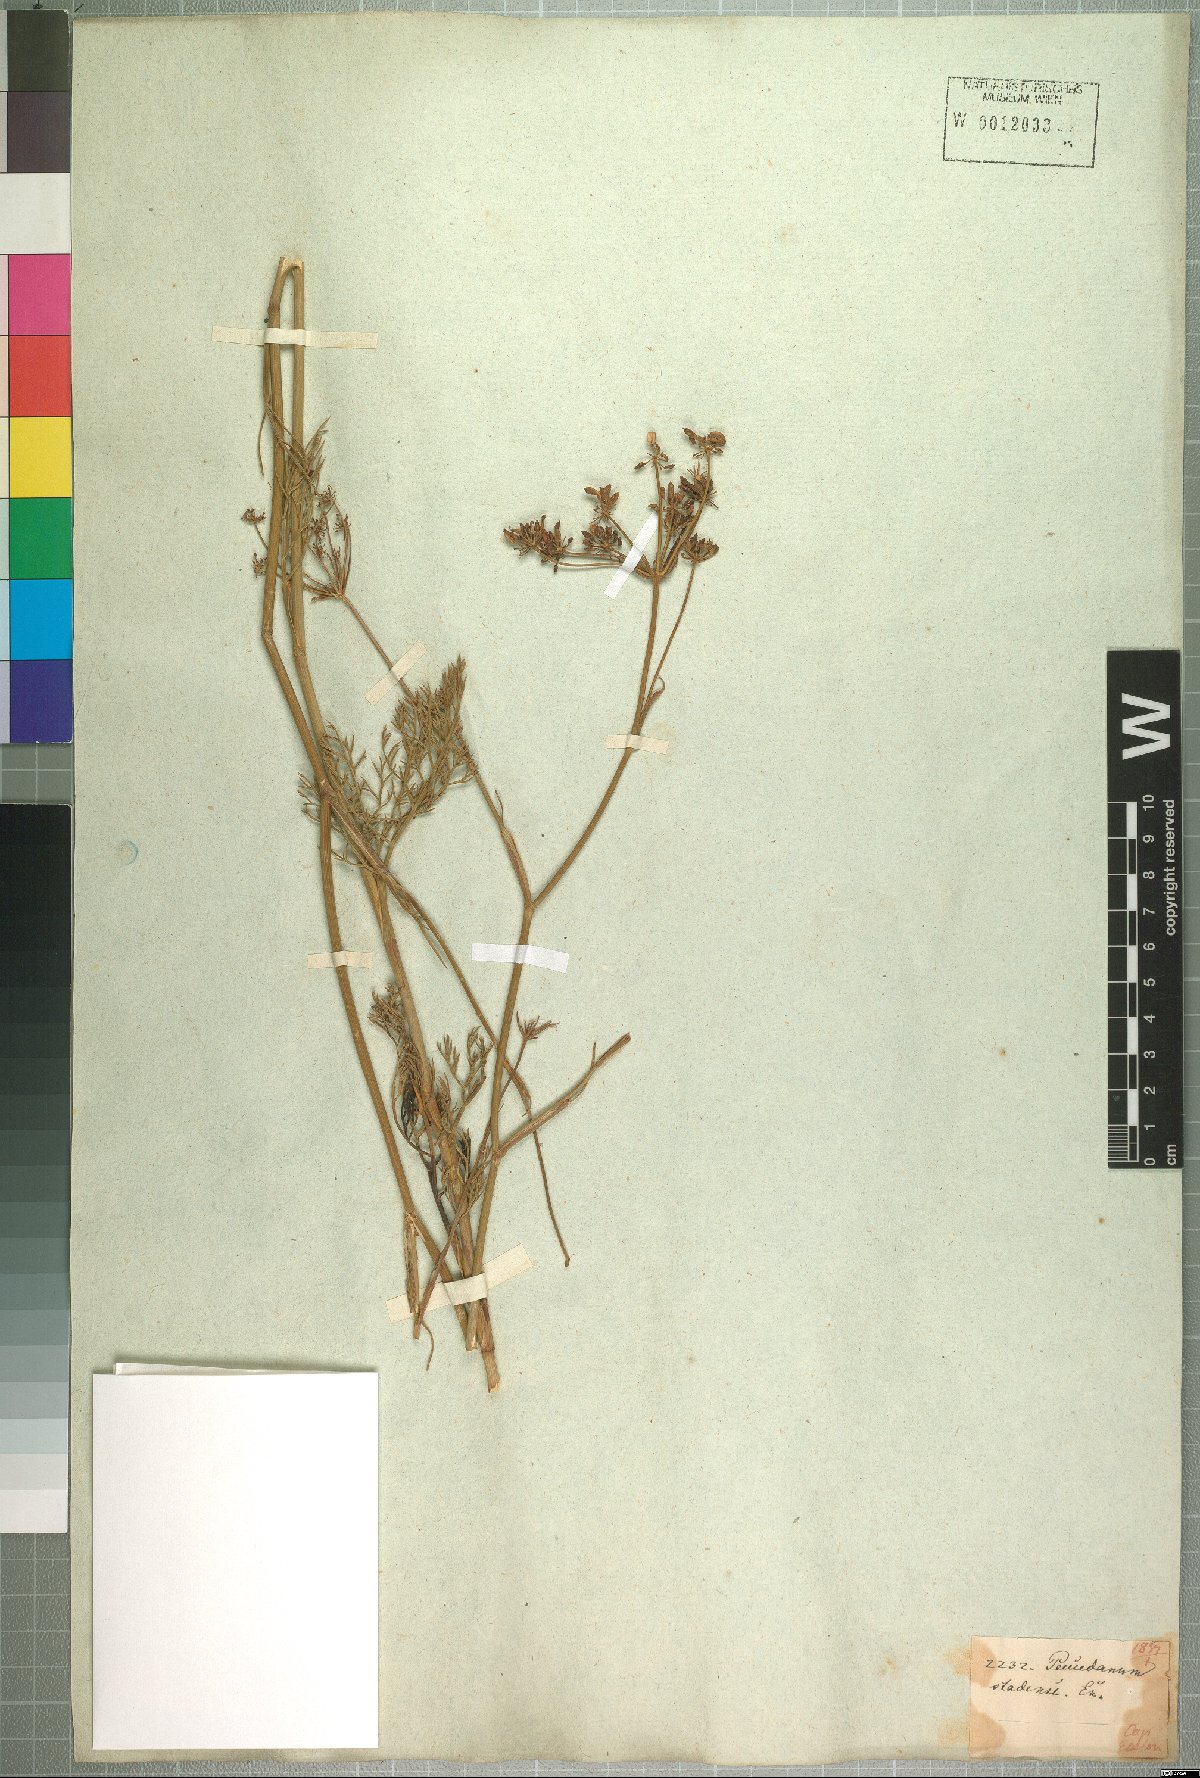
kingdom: Plantae
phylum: Tracheophyta
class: Magnoliopsida
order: Apiales
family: Apiaceae
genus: Notobubon
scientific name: Notobubon ferulaceum
